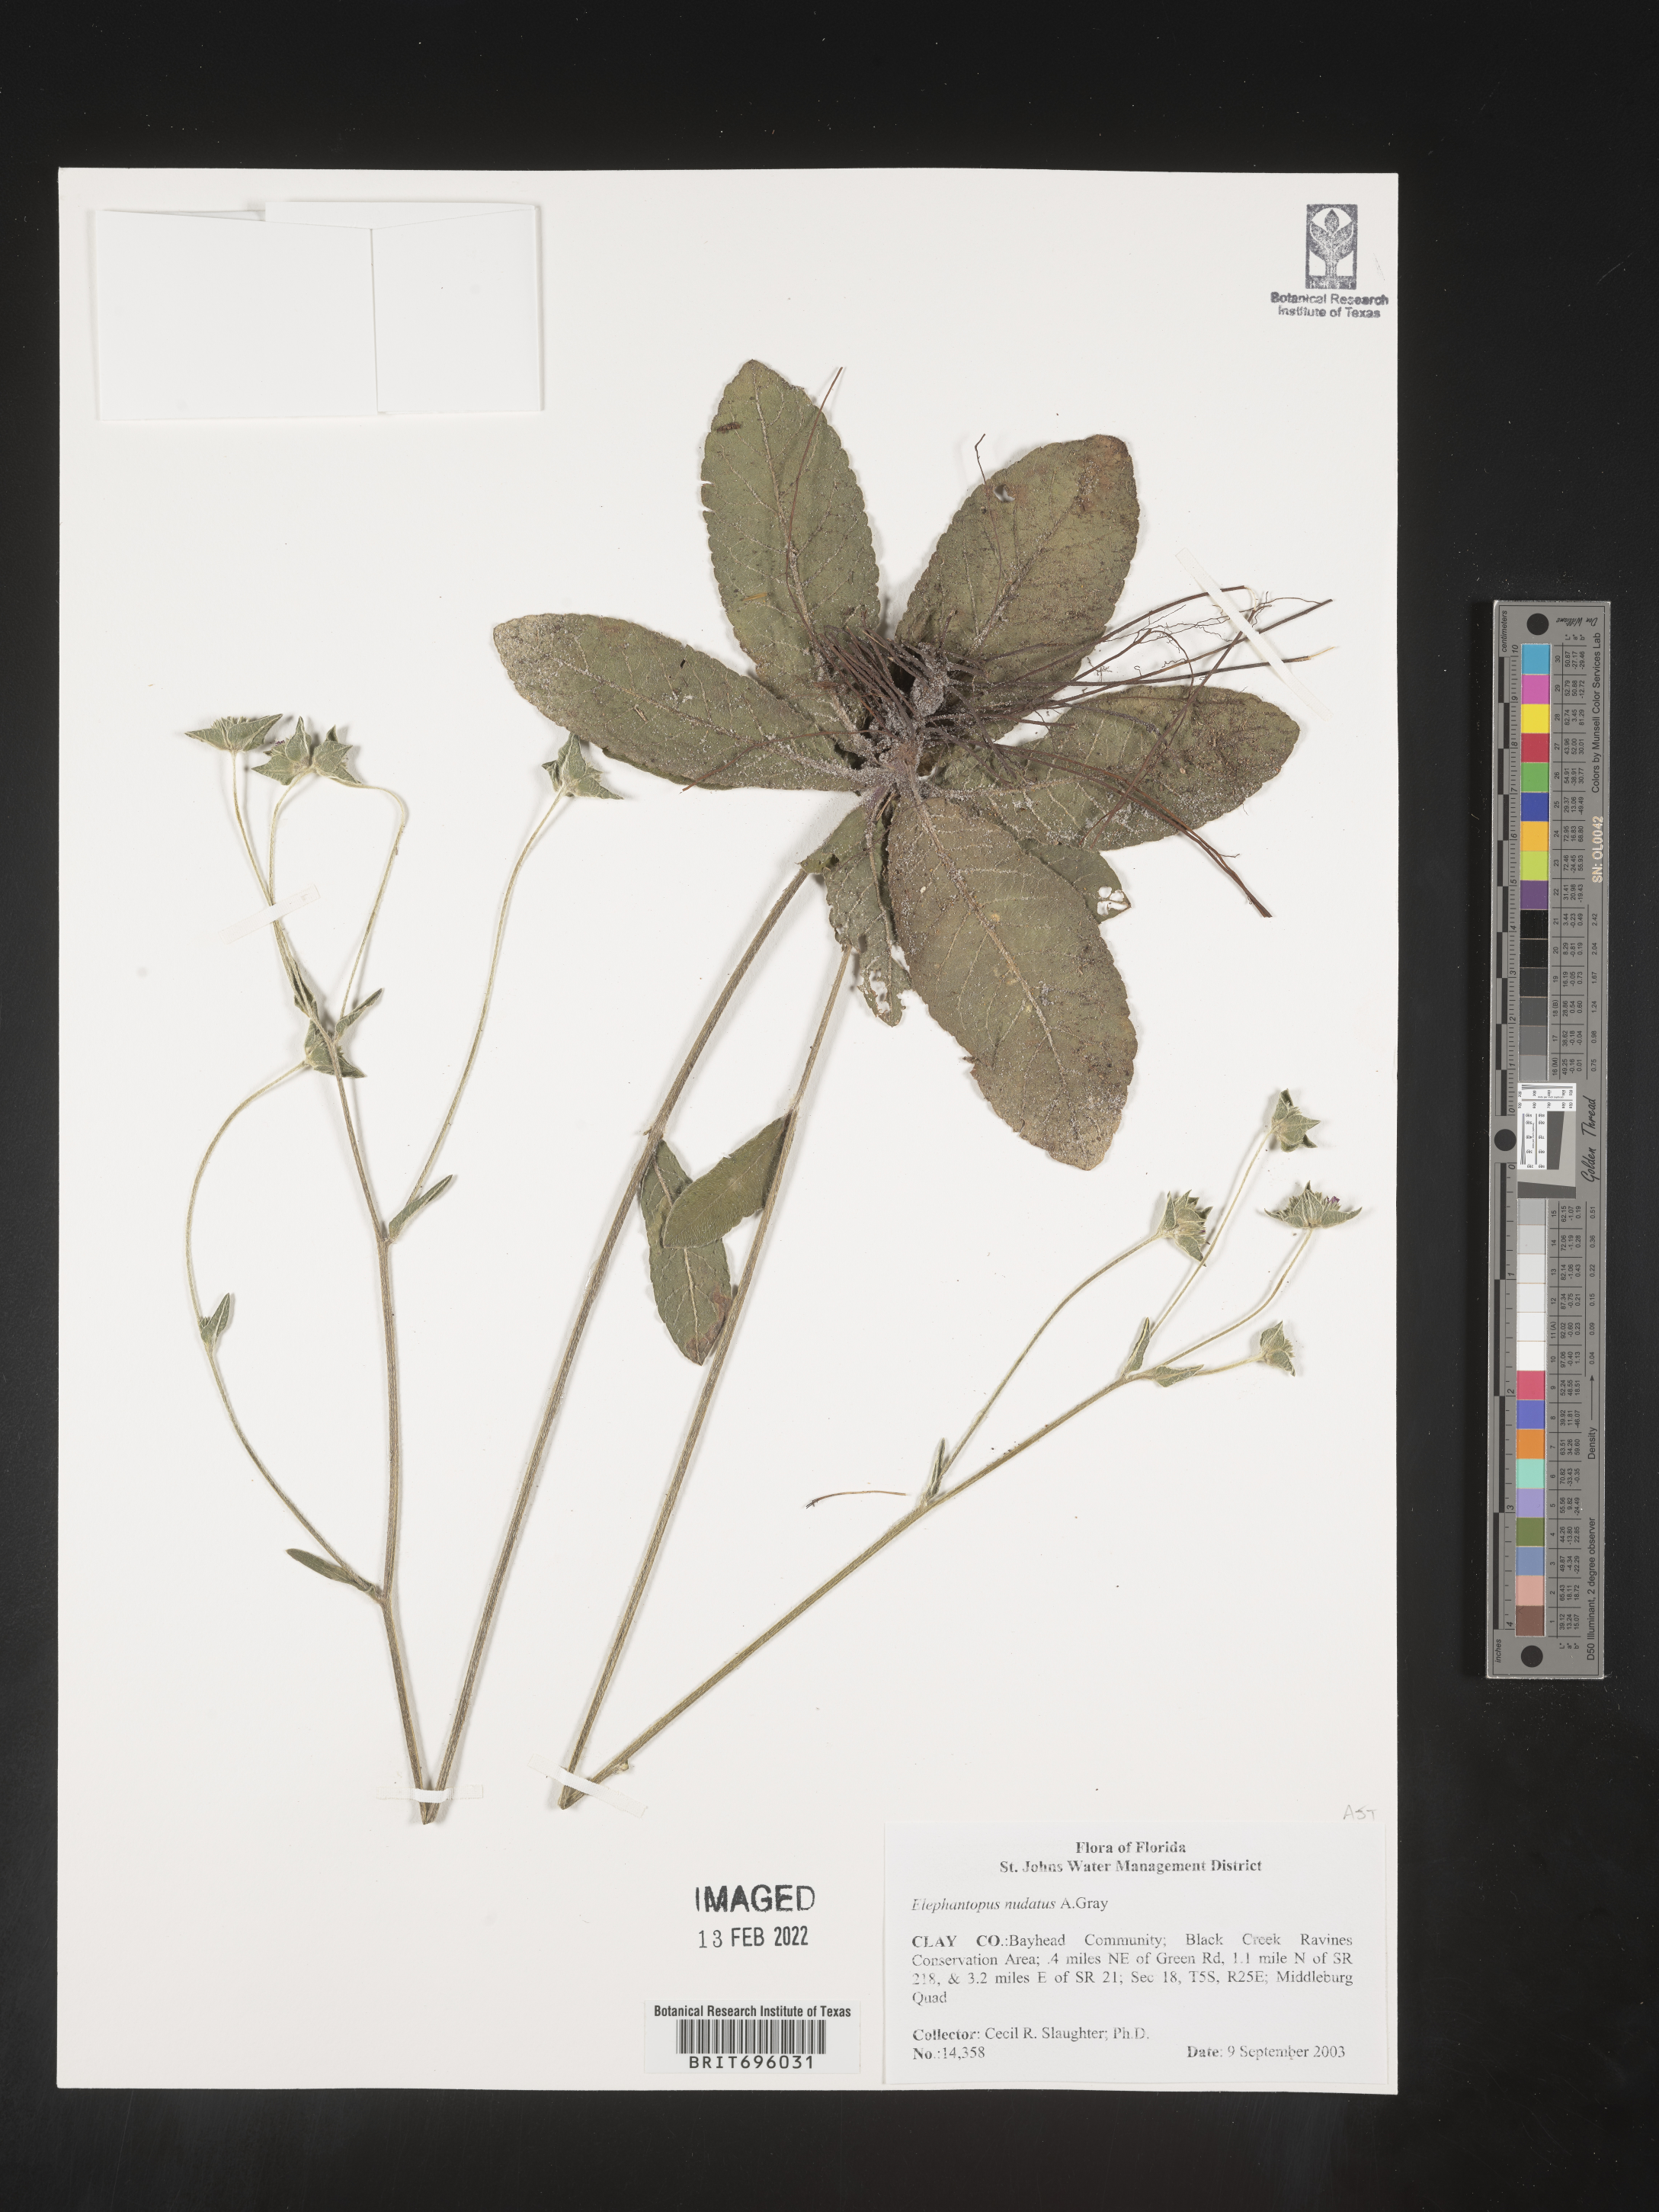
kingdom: Plantae
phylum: Tracheophyta
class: Magnoliopsida
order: Asterales
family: Asteraceae
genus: Elephantopus
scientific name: Elephantopus nudatus
